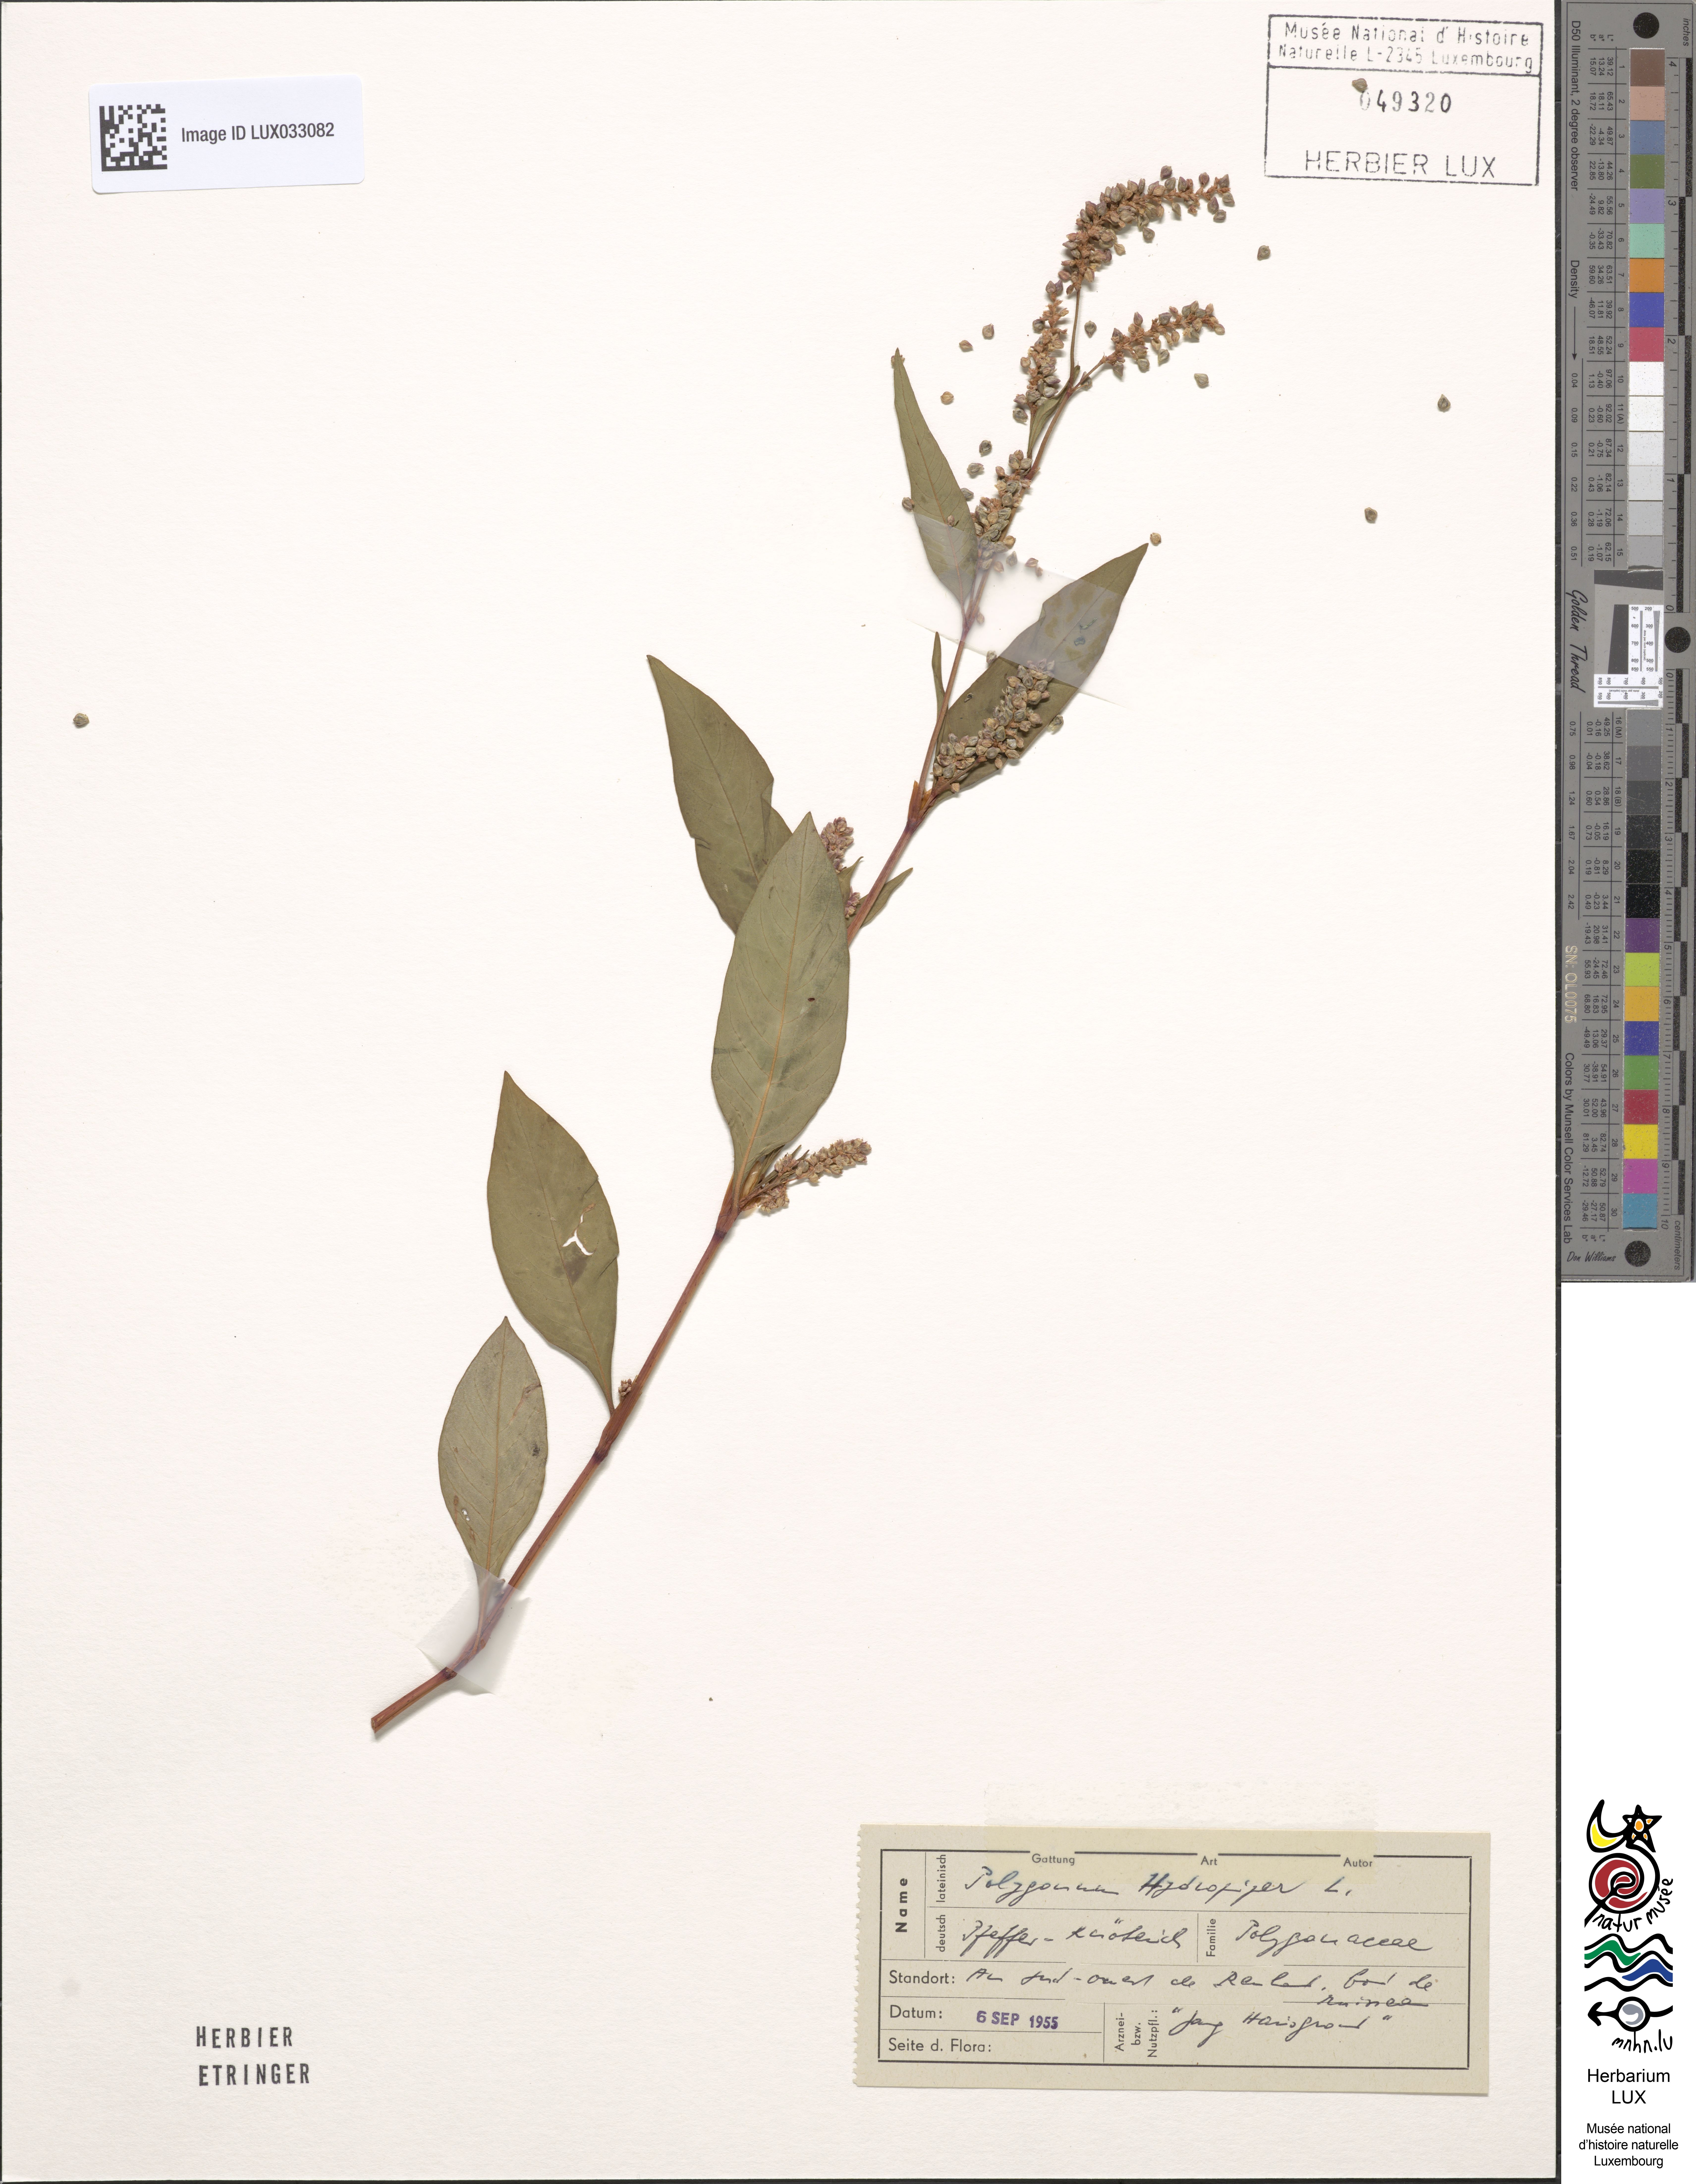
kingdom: Plantae
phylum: Tracheophyta
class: Magnoliopsida
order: Caryophyllales
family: Polygonaceae
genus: Persicaria
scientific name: Persicaria hydropiper
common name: Water-pepper
